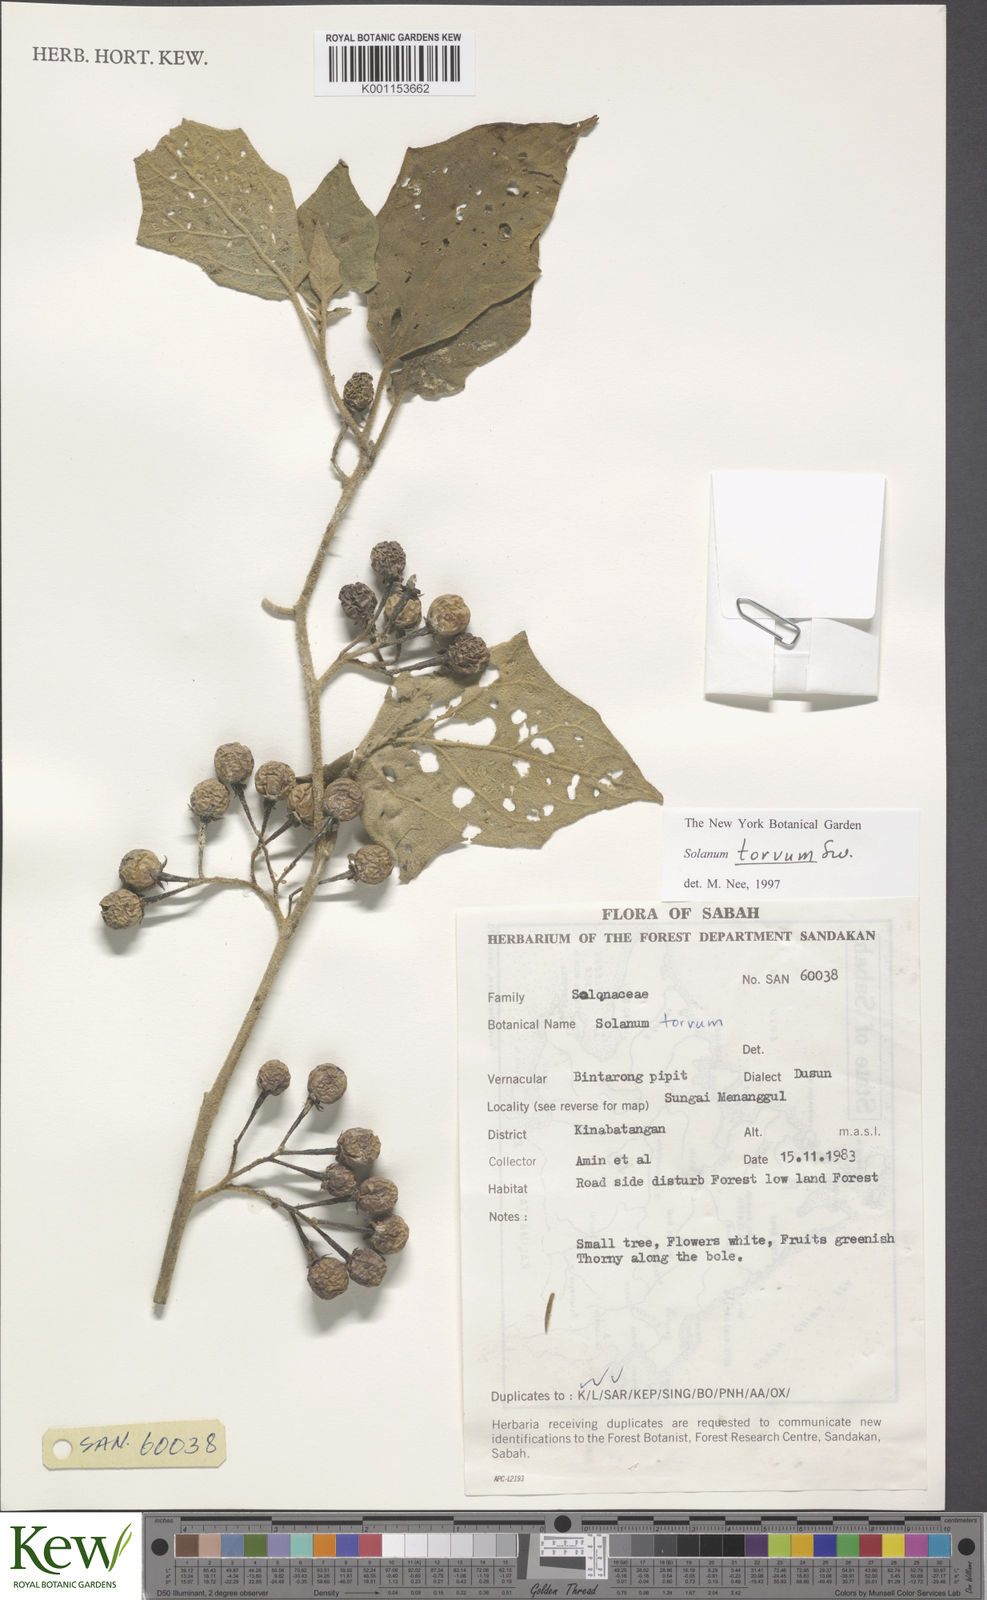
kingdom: Plantae
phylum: Tracheophyta
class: Magnoliopsida
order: Solanales
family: Solanaceae
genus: Solanum
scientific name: Solanum torvum
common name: Turkey berry
